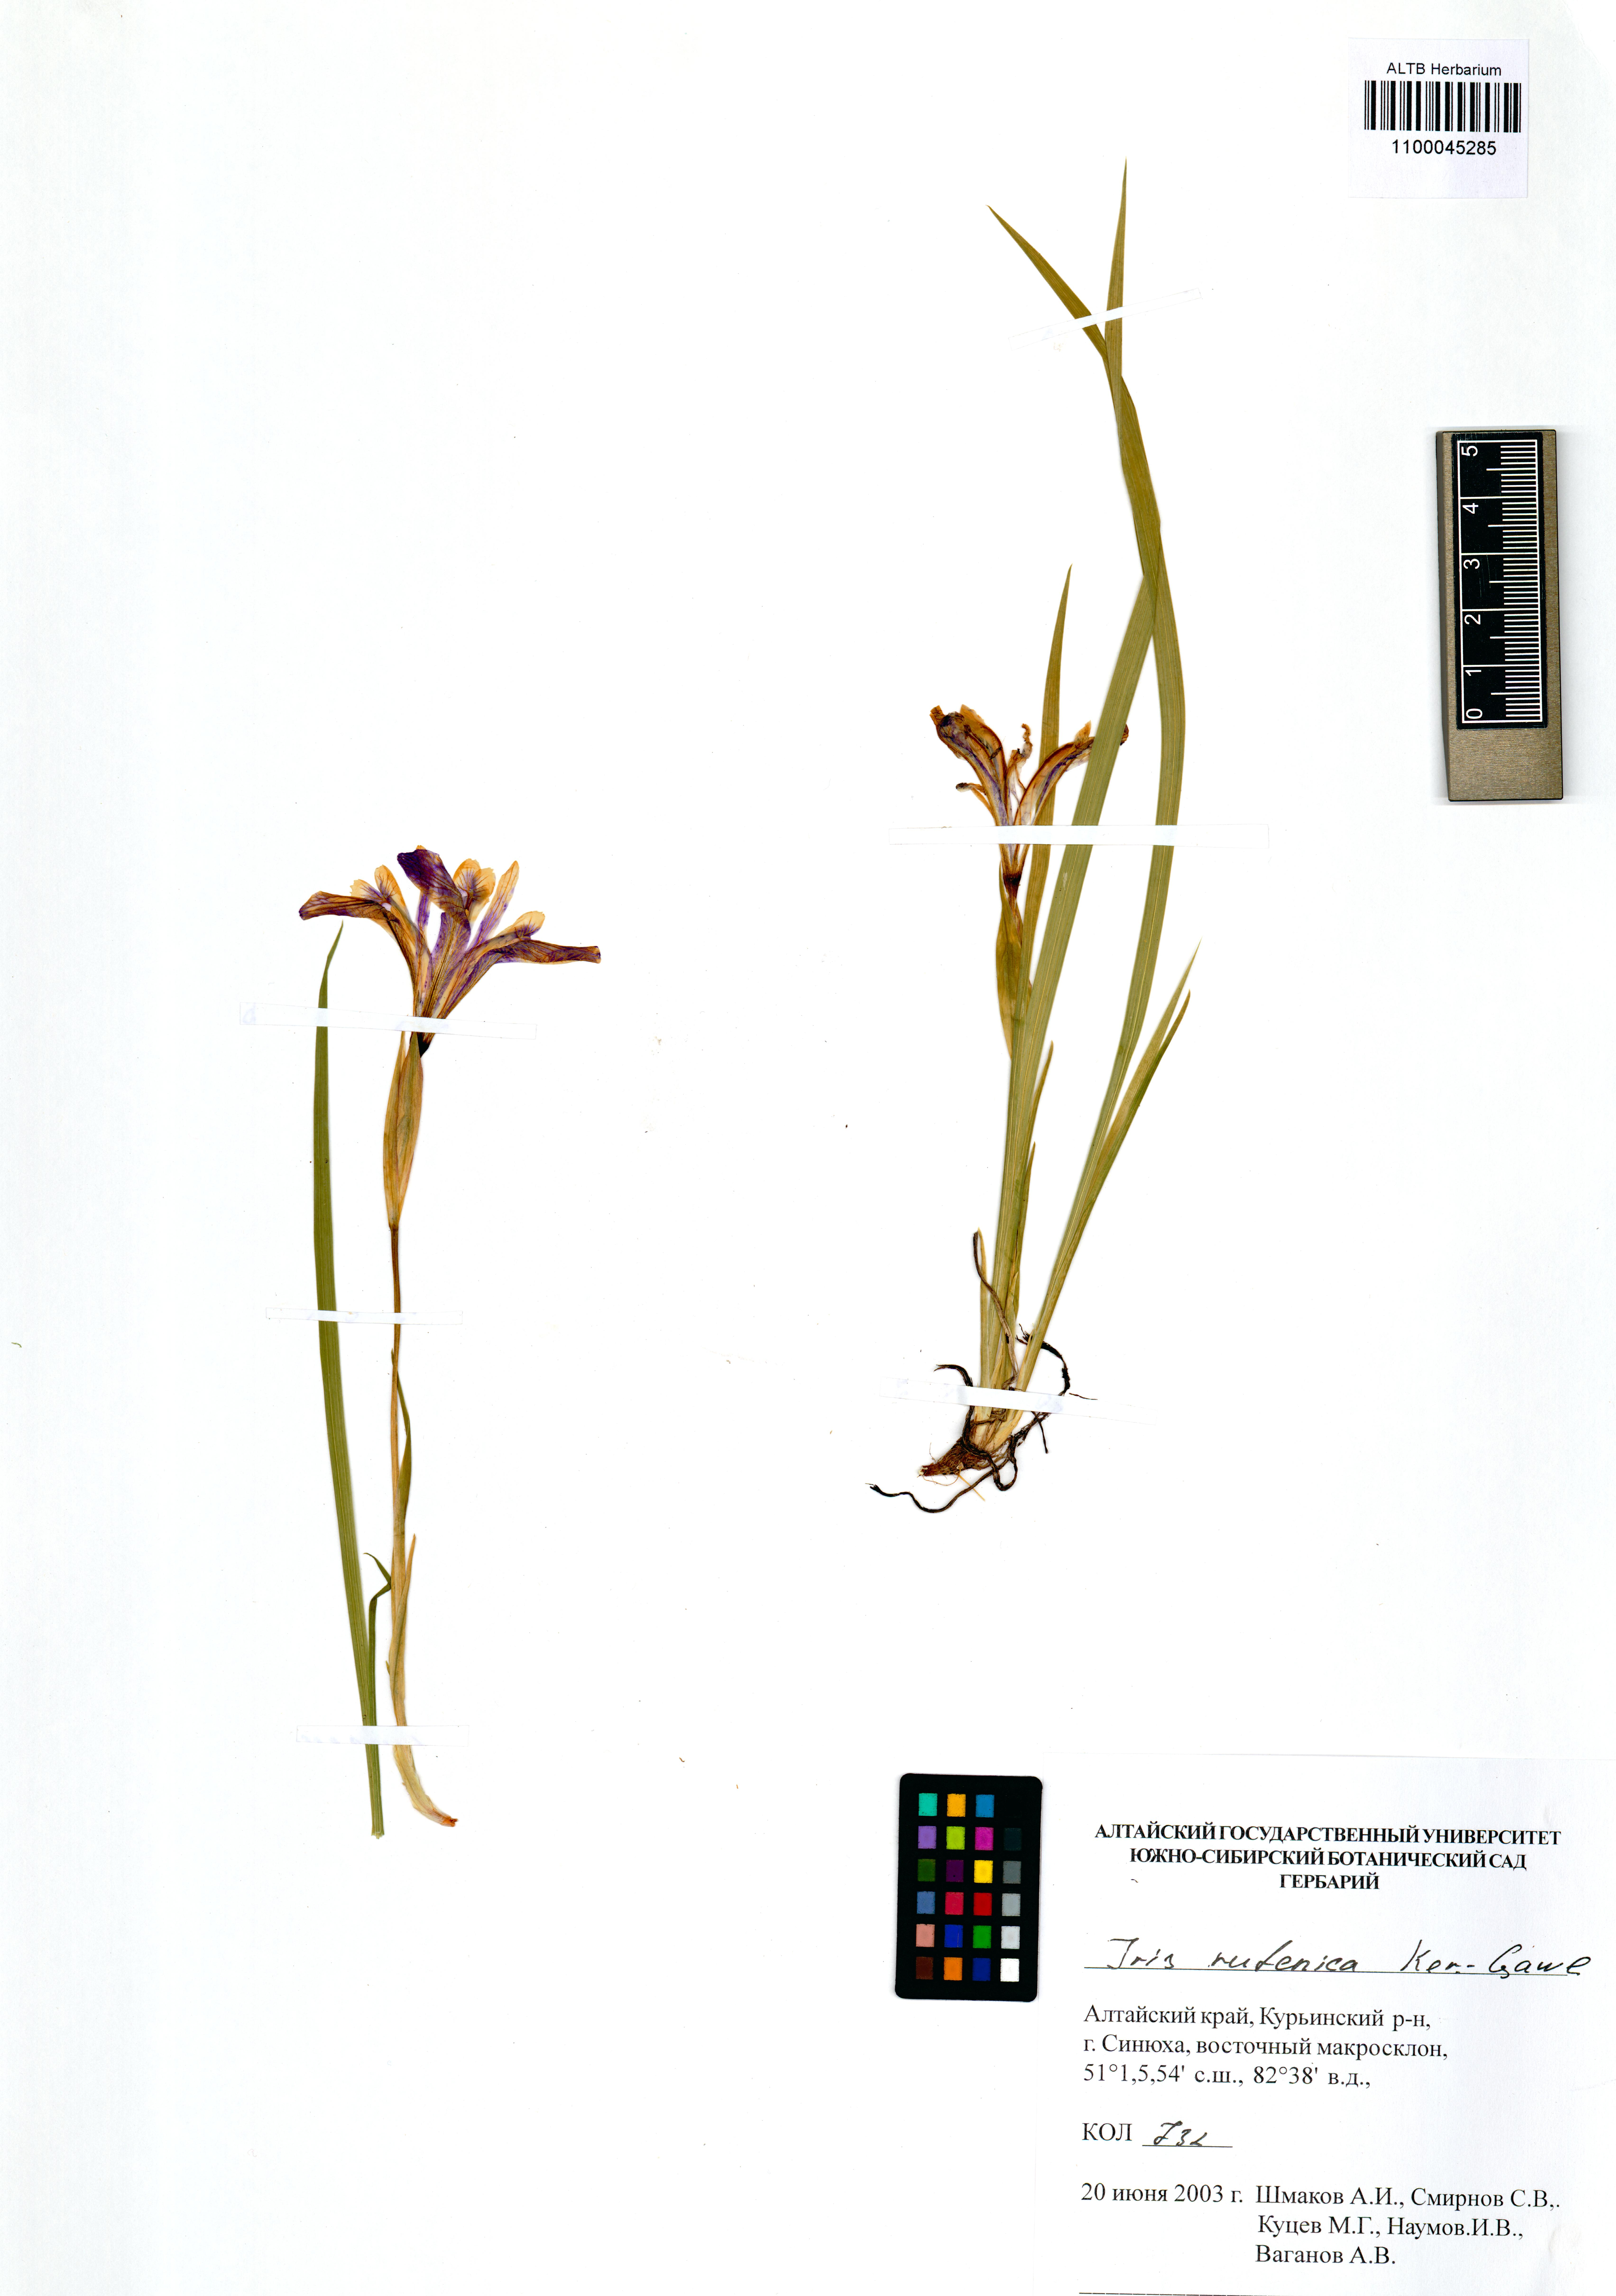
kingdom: Plantae
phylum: Tracheophyta
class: Liliopsida
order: Asparagales
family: Iridaceae
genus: Iris
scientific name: Iris ruthenica
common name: Purple-bract iris
